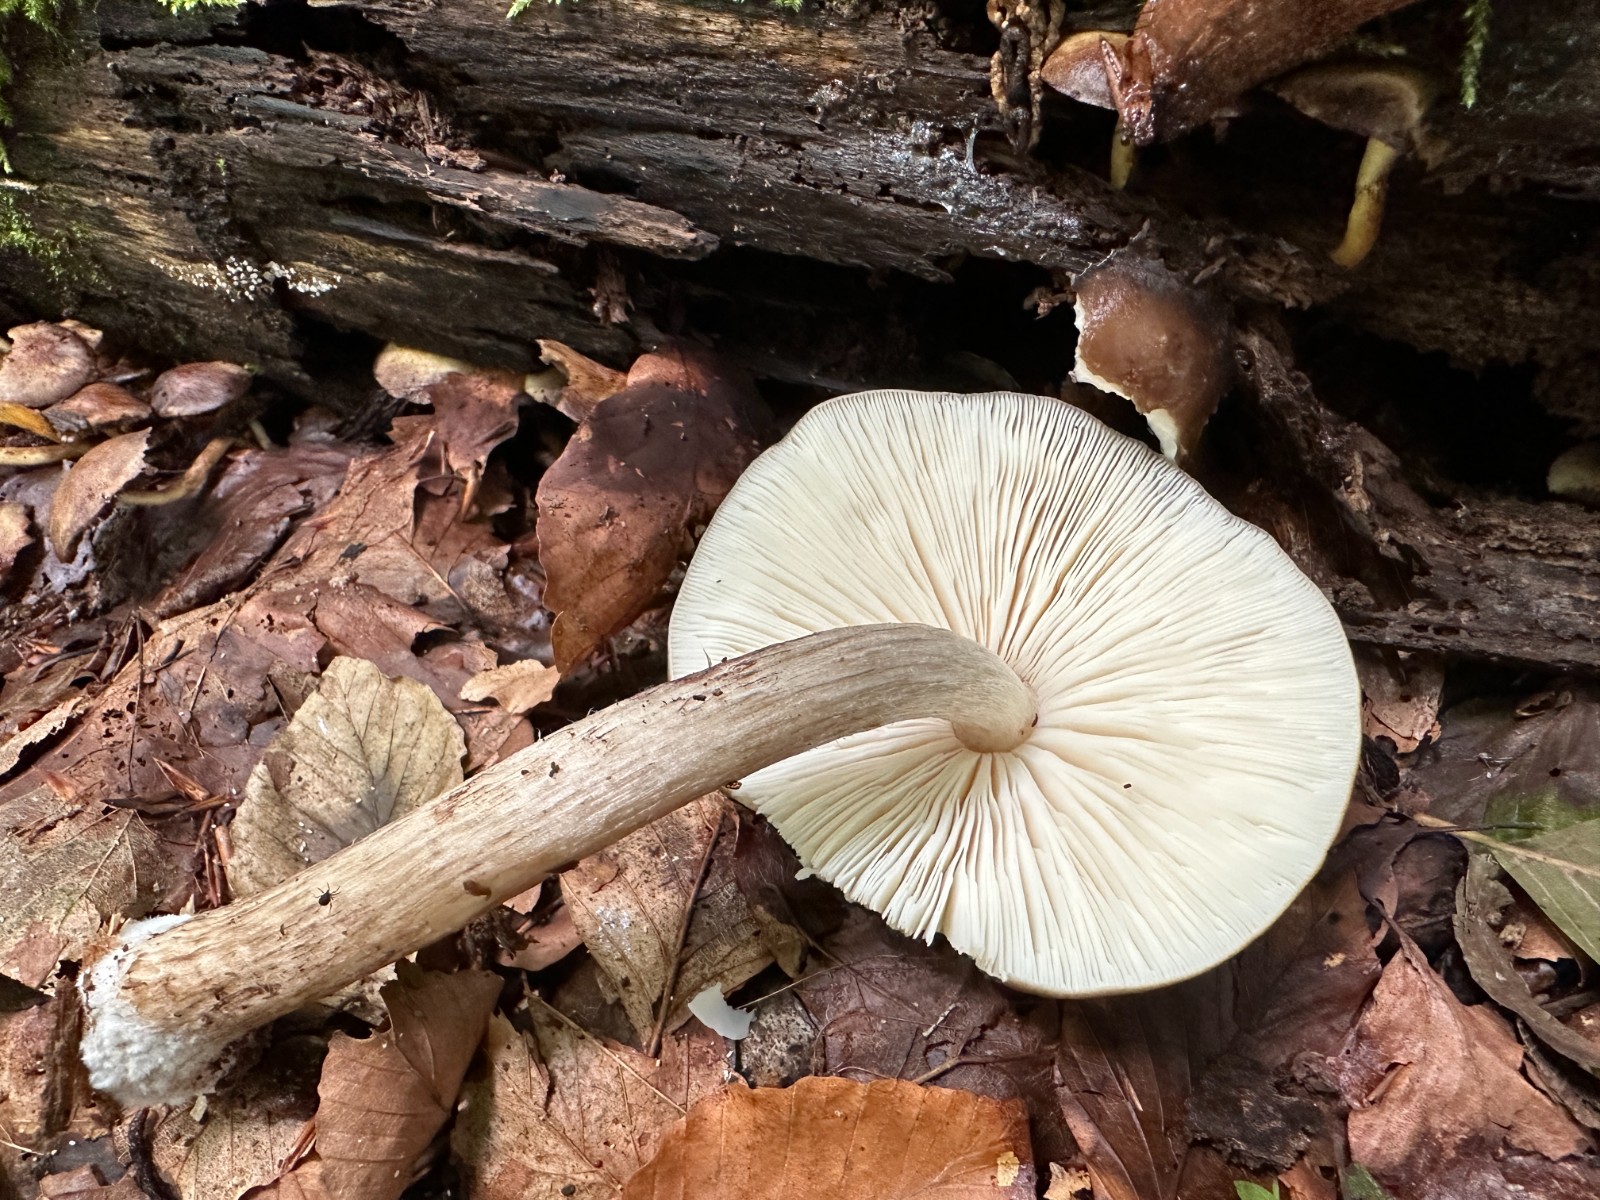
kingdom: Fungi
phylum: Basidiomycota
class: Agaricomycetes
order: Agaricales
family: Pluteaceae
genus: Pluteus
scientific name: Pluteus cervinus
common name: sodfarvet skærmhat
